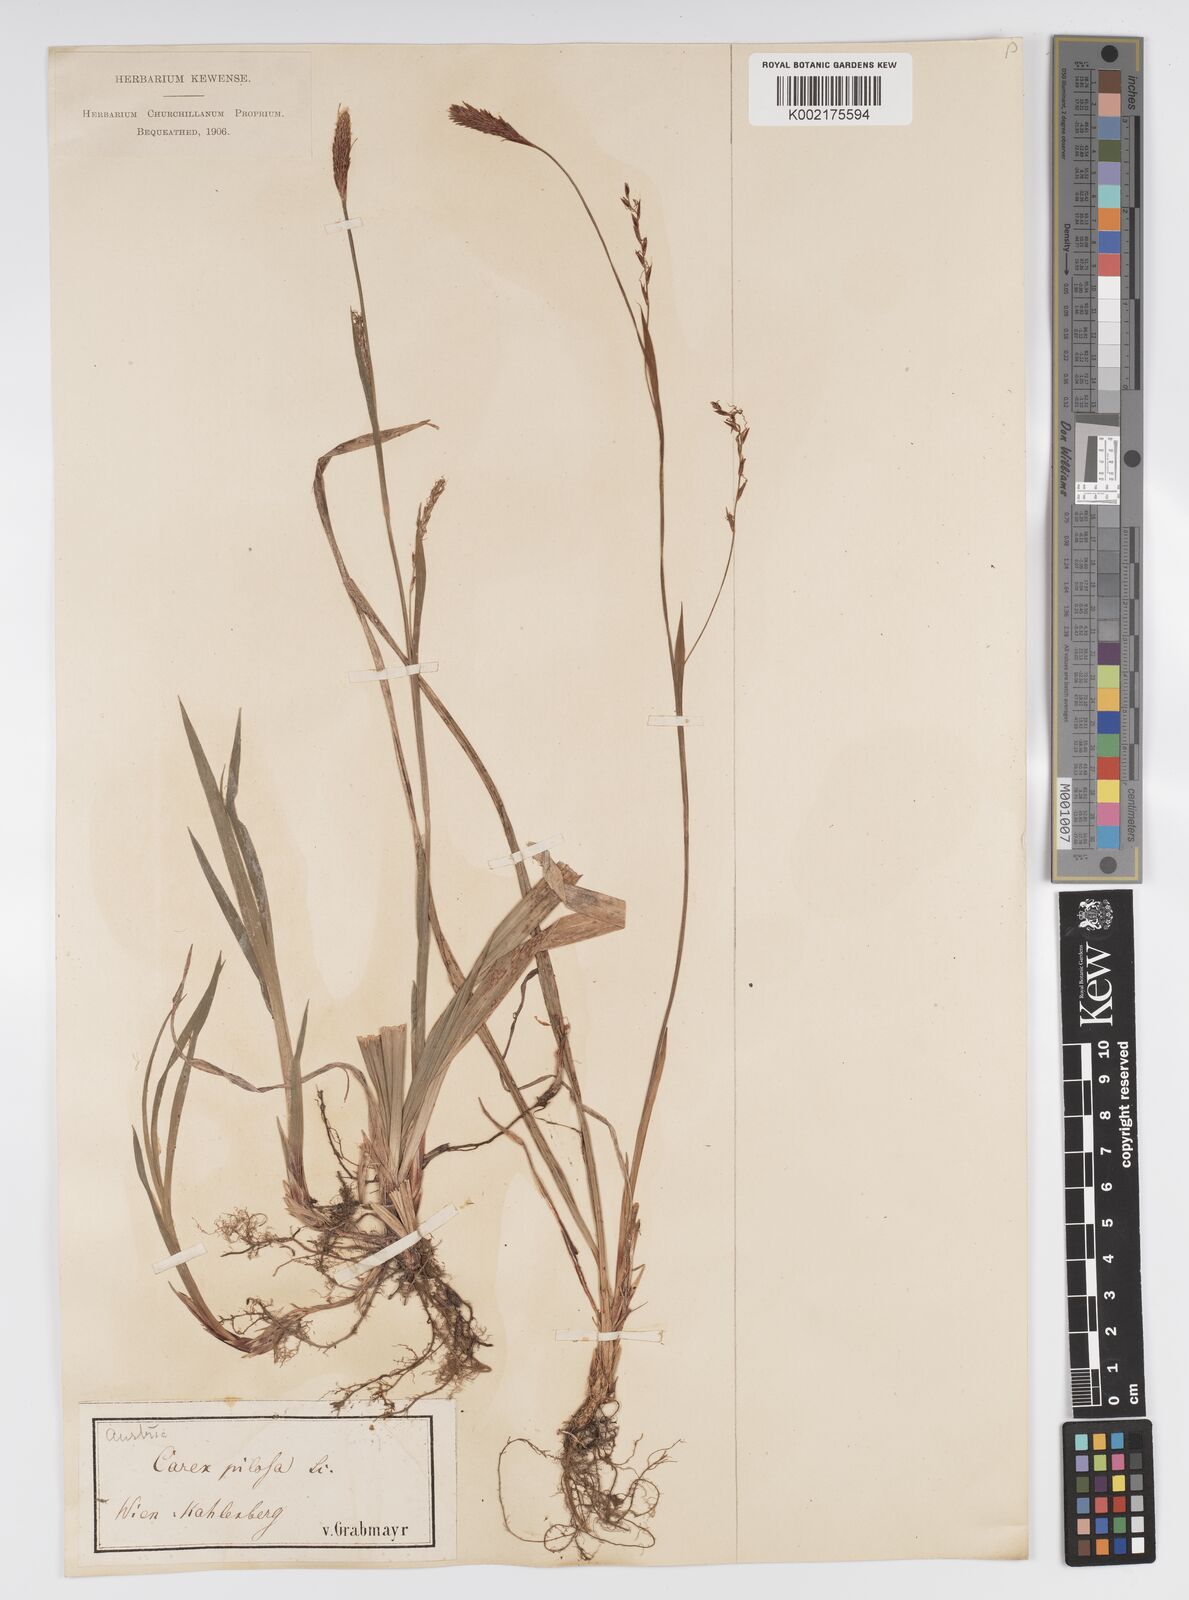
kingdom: Plantae
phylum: Tracheophyta
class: Liliopsida
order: Poales
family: Cyperaceae
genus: Carex
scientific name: Carex pilosa
